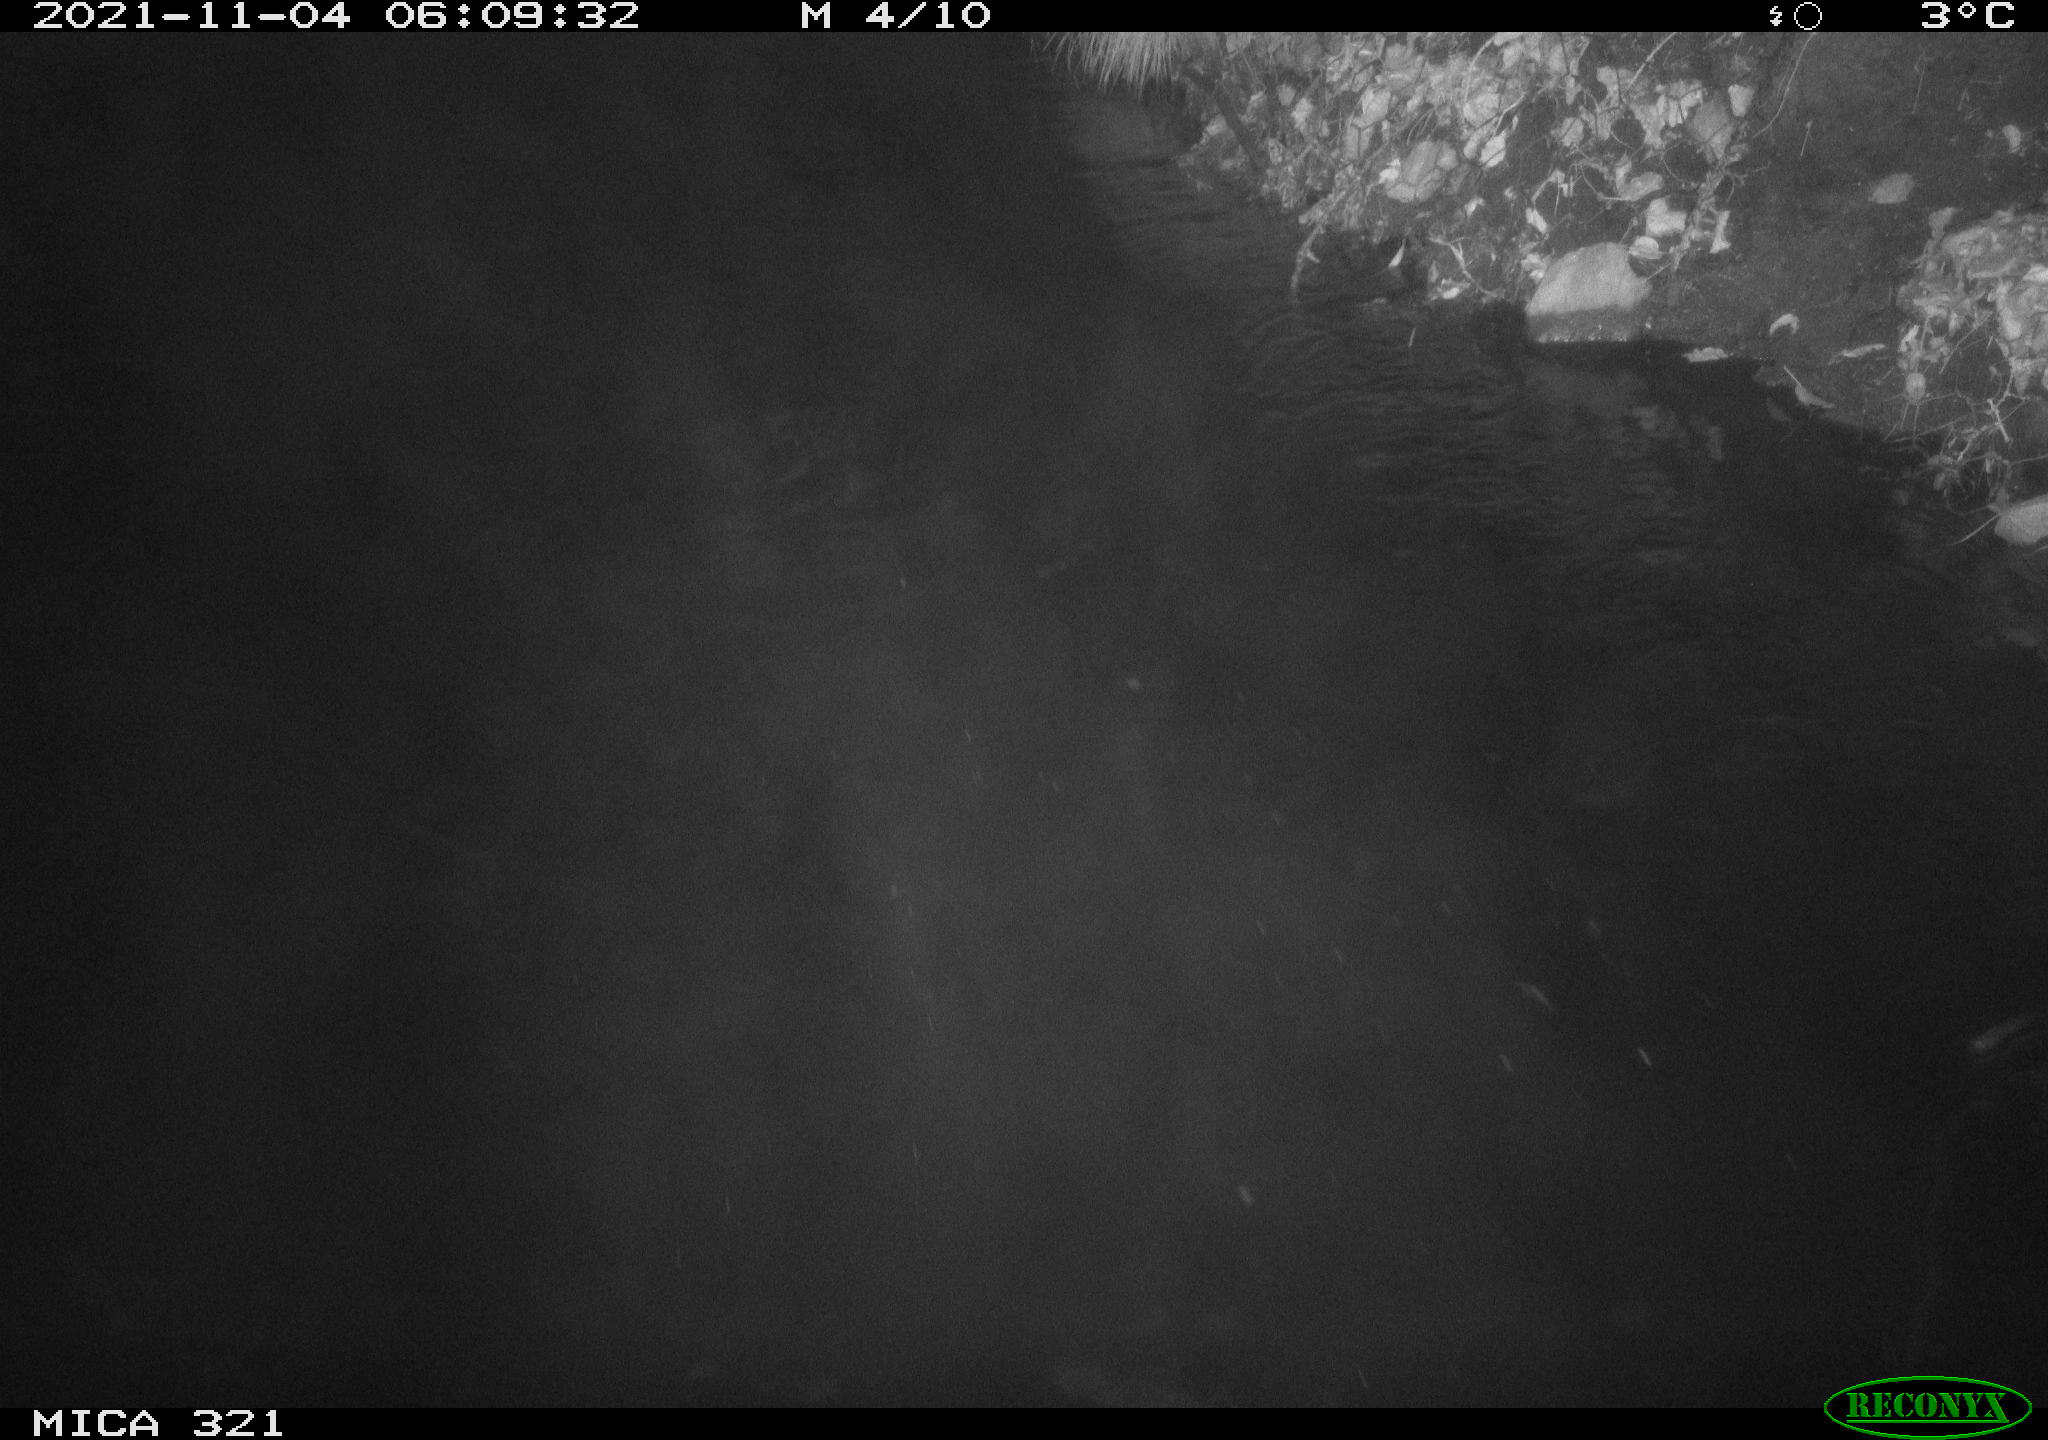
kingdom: Animalia
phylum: Chordata
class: Mammalia
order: Rodentia
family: Muridae
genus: Rattus
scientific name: Rattus norvegicus
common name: Brown rat
